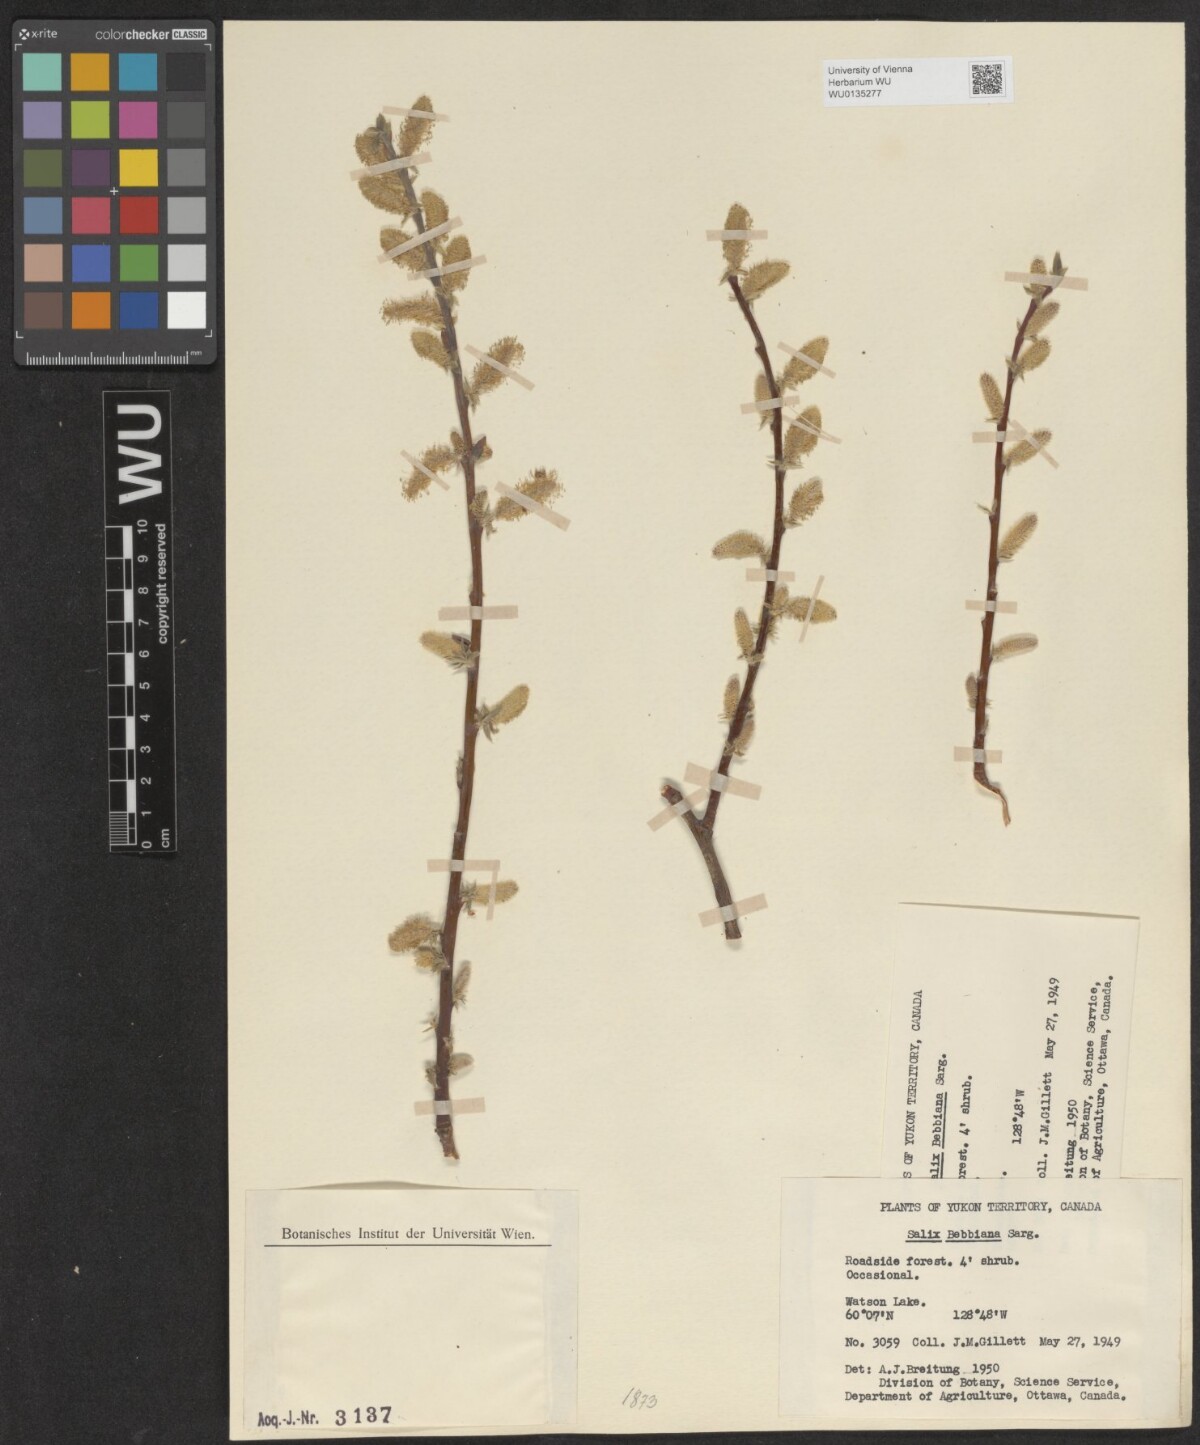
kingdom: Plantae
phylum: Tracheophyta
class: Magnoliopsida
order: Malpighiales
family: Salicaceae
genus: Salix
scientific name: Salix bebbiana
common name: Bebb's willow
